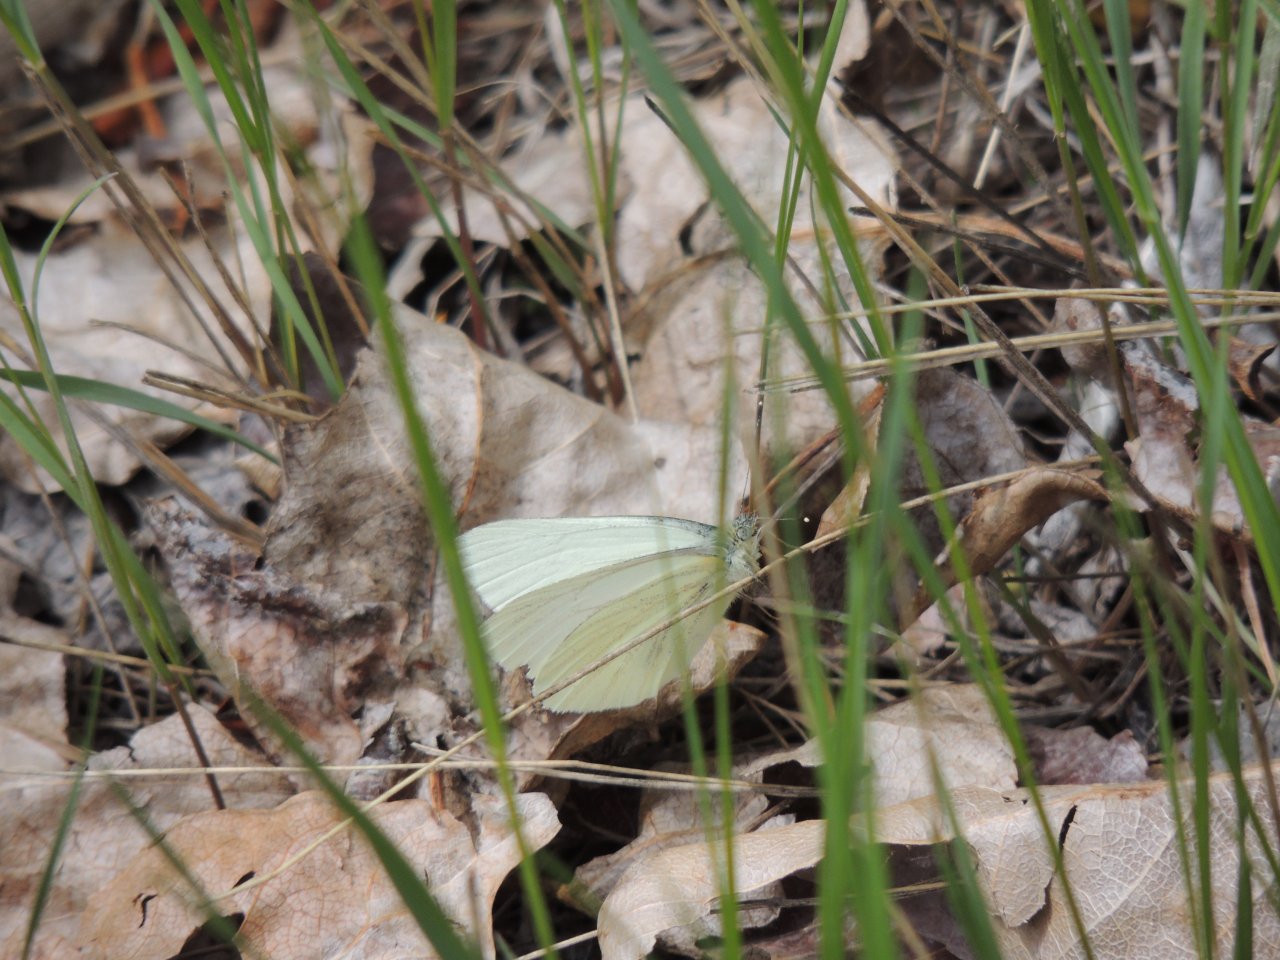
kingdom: Animalia
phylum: Arthropoda
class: Insecta
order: Lepidoptera
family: Pieridae
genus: Pieris
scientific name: Pieris marginalis
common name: Margined White
